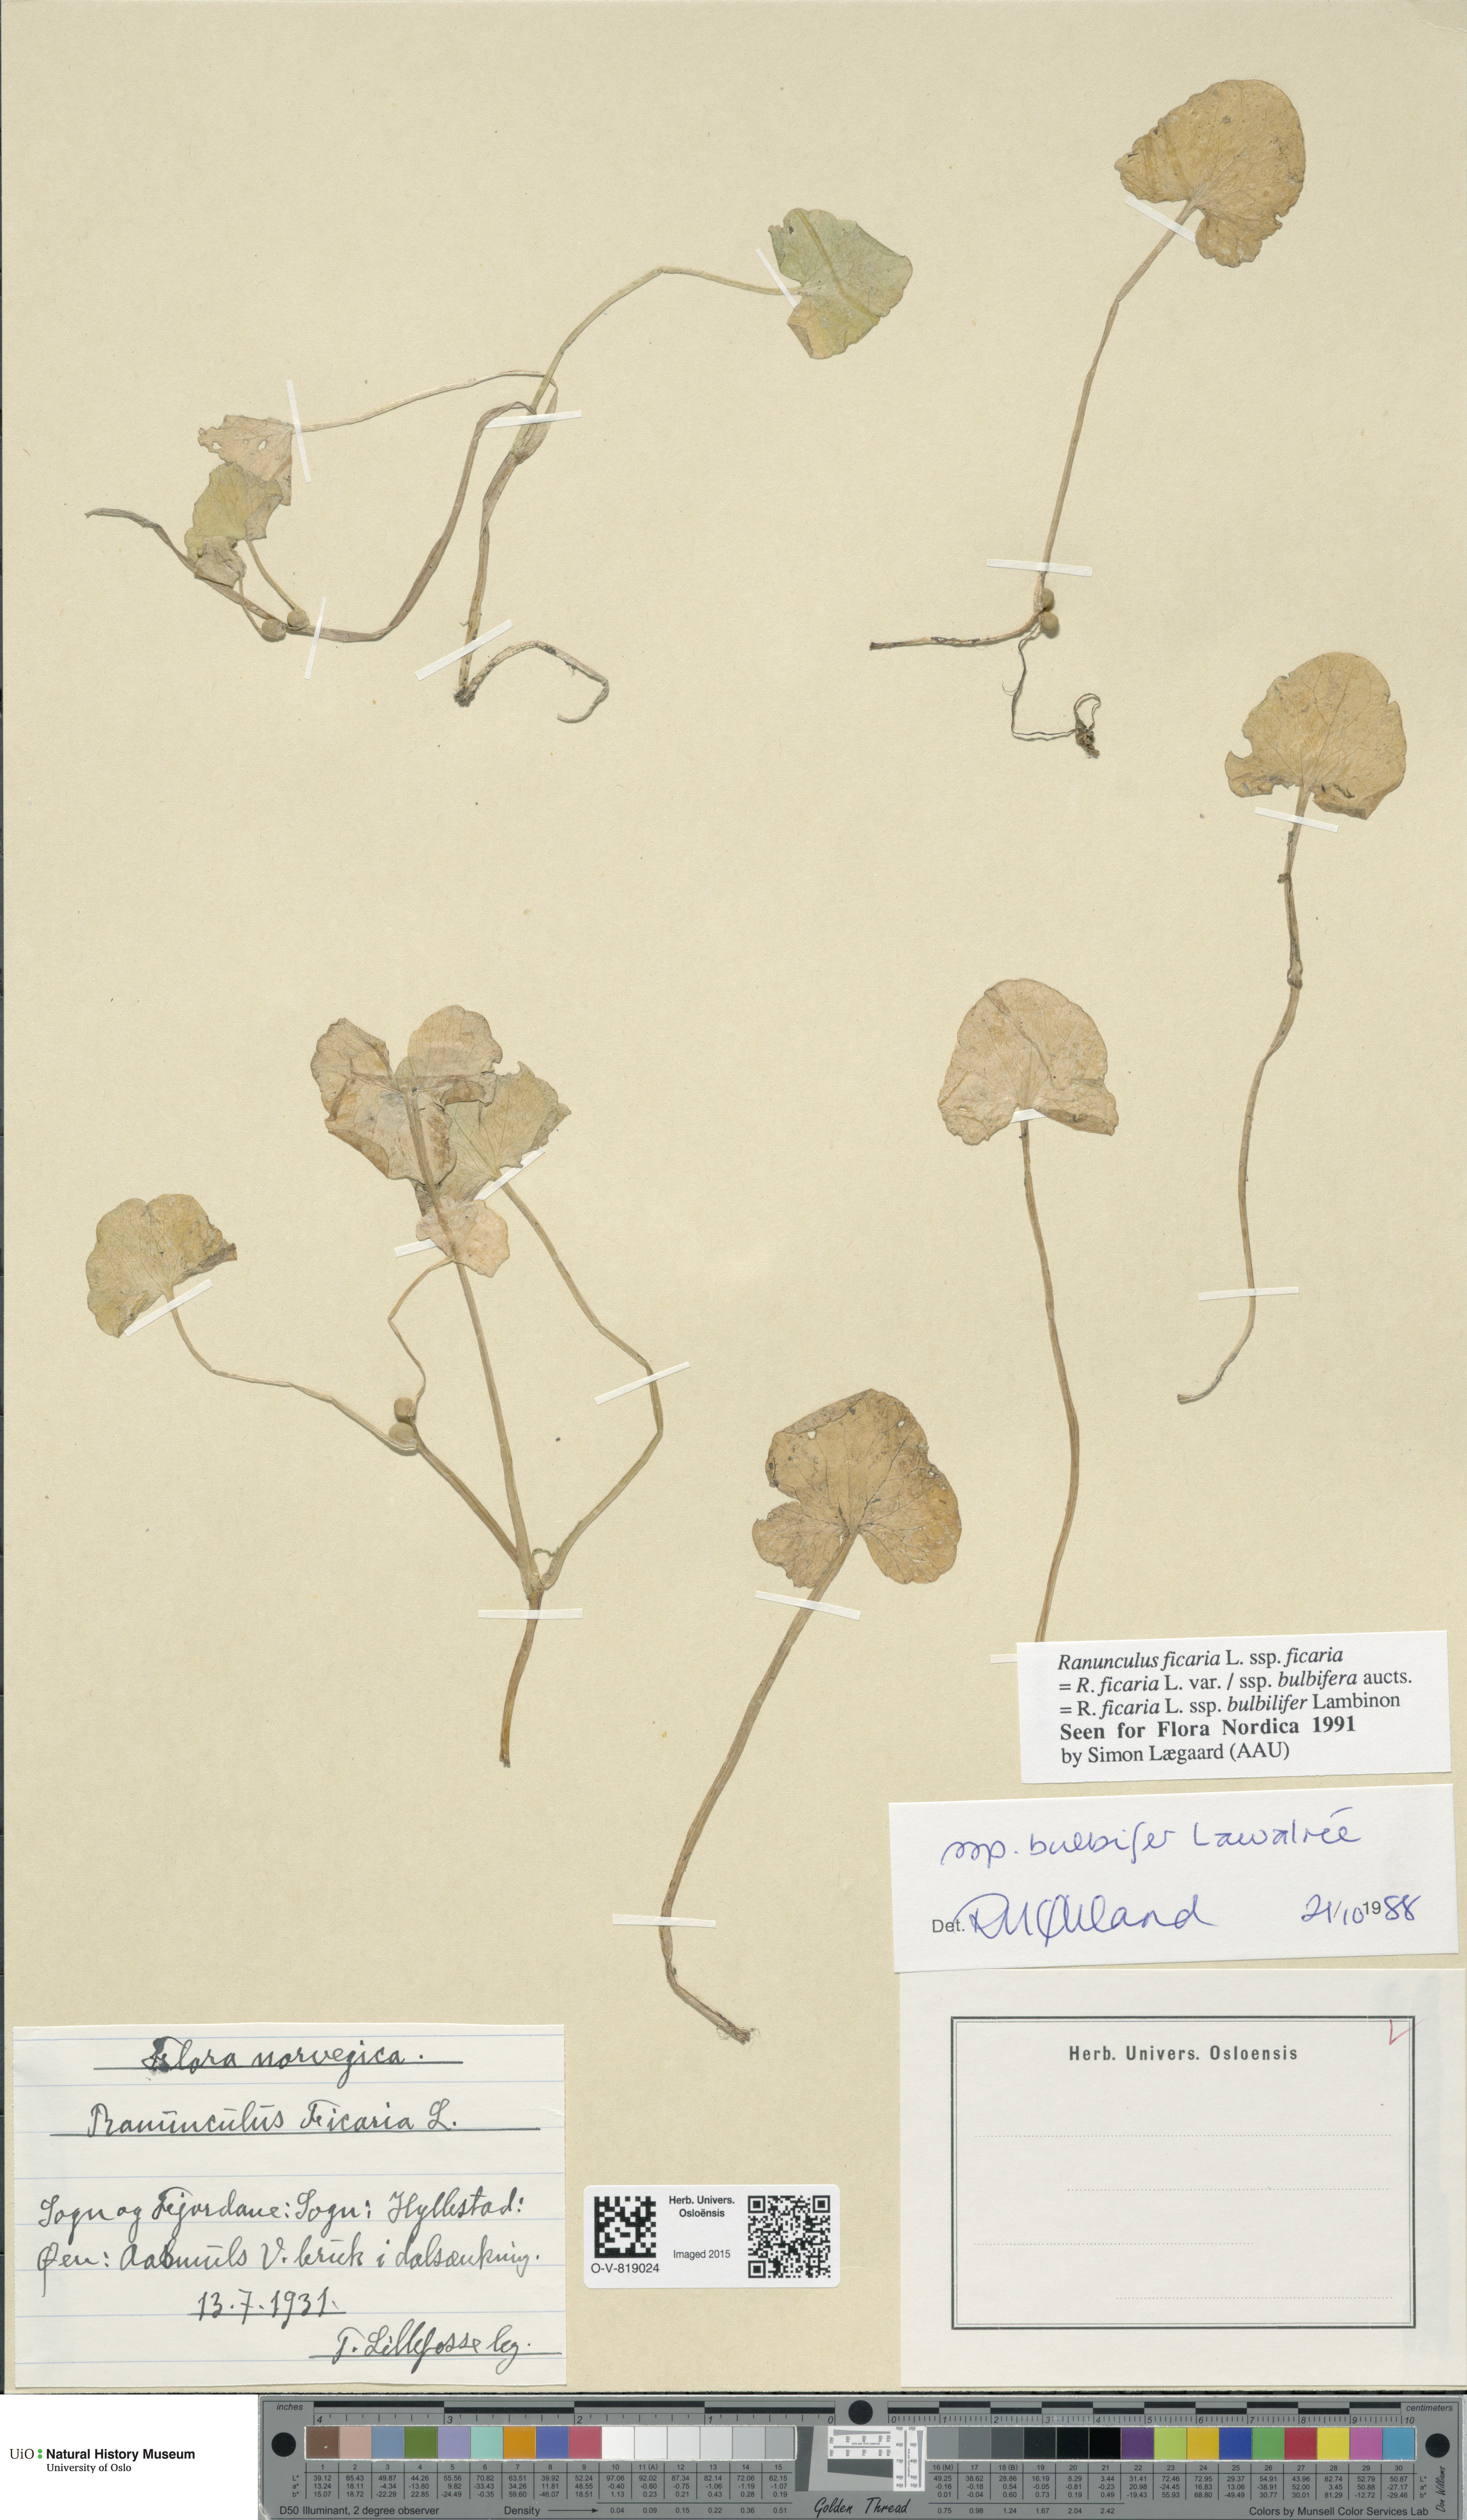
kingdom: Plantae
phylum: Tracheophyta
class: Magnoliopsida
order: Ranunculales
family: Ranunculaceae
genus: Ficaria
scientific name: Ficaria verna
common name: Lesser celandine
